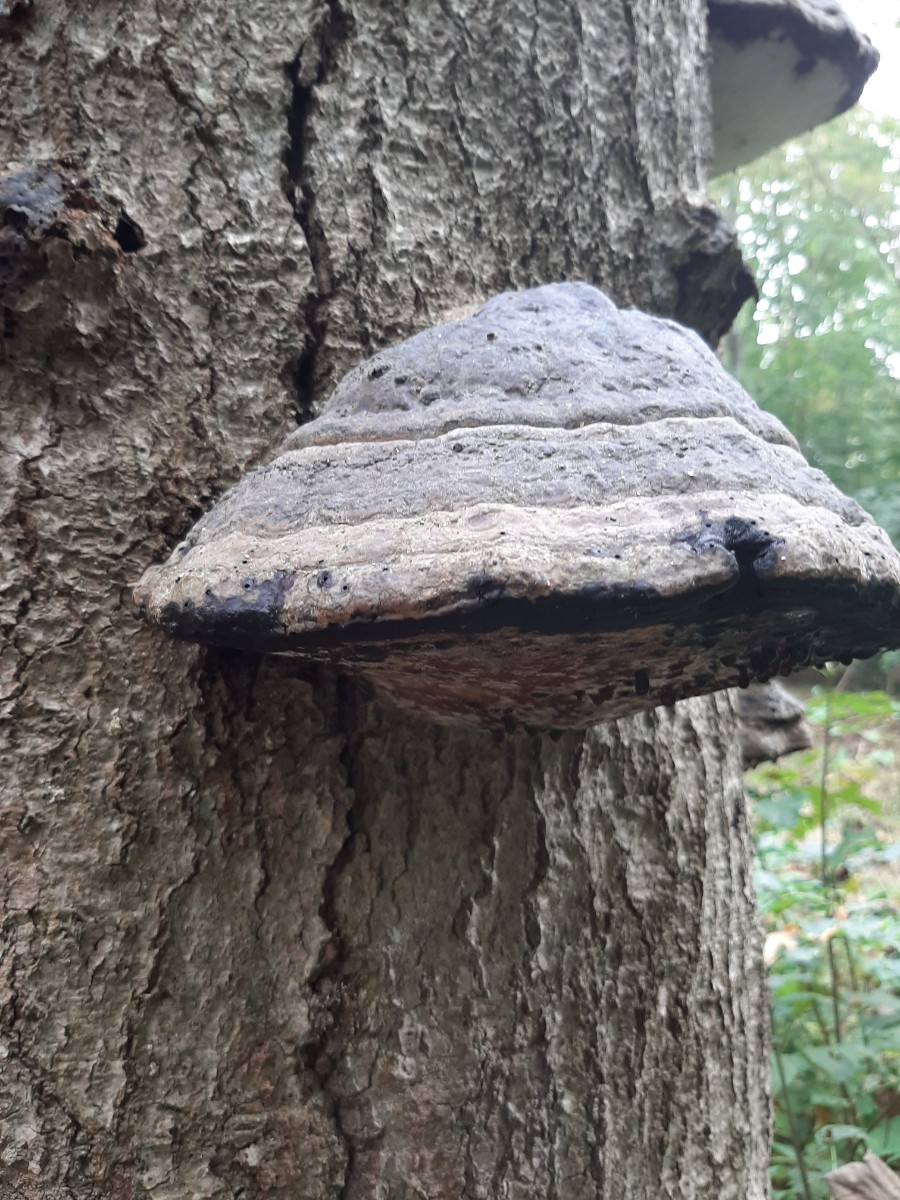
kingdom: Fungi
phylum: Basidiomycota
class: Agaricomycetes
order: Polyporales
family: Polyporaceae
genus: Fomes
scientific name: Fomes fomentarius
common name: tøndersvamp
